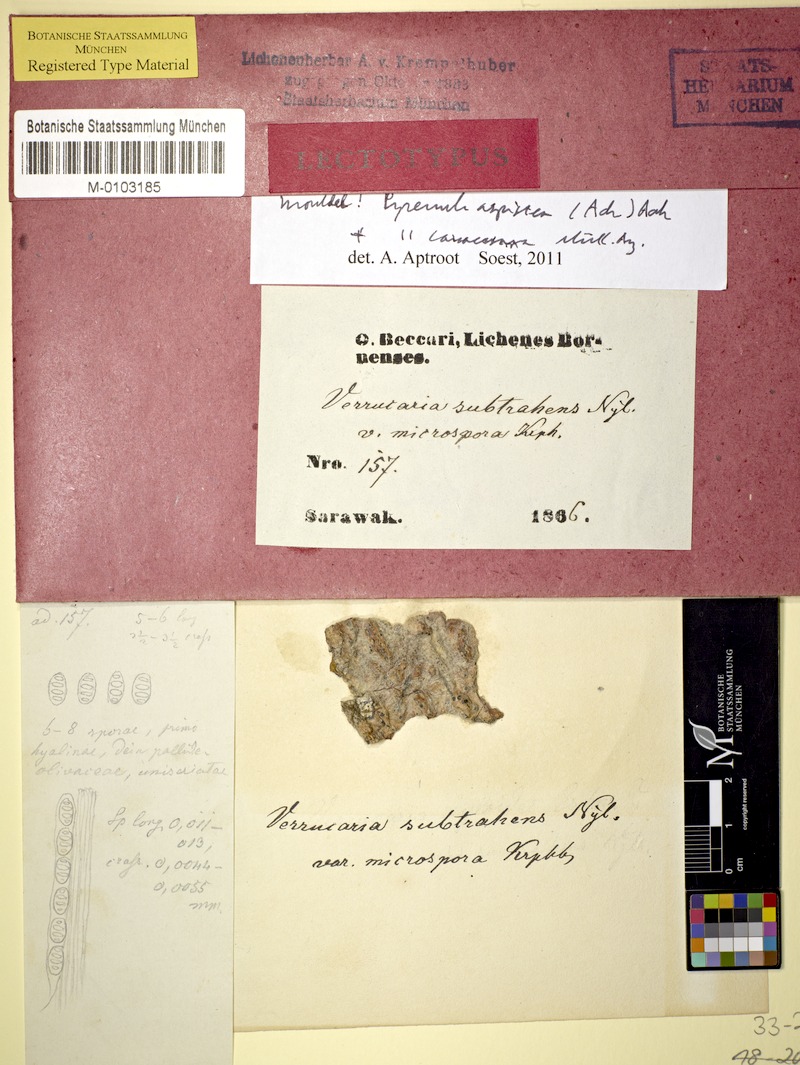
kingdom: Fungi
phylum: Ascomycota
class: Eurotiomycetes
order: Pyrenulales
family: Pyrenulaceae
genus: Pyrenula
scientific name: Pyrenula aspistea
